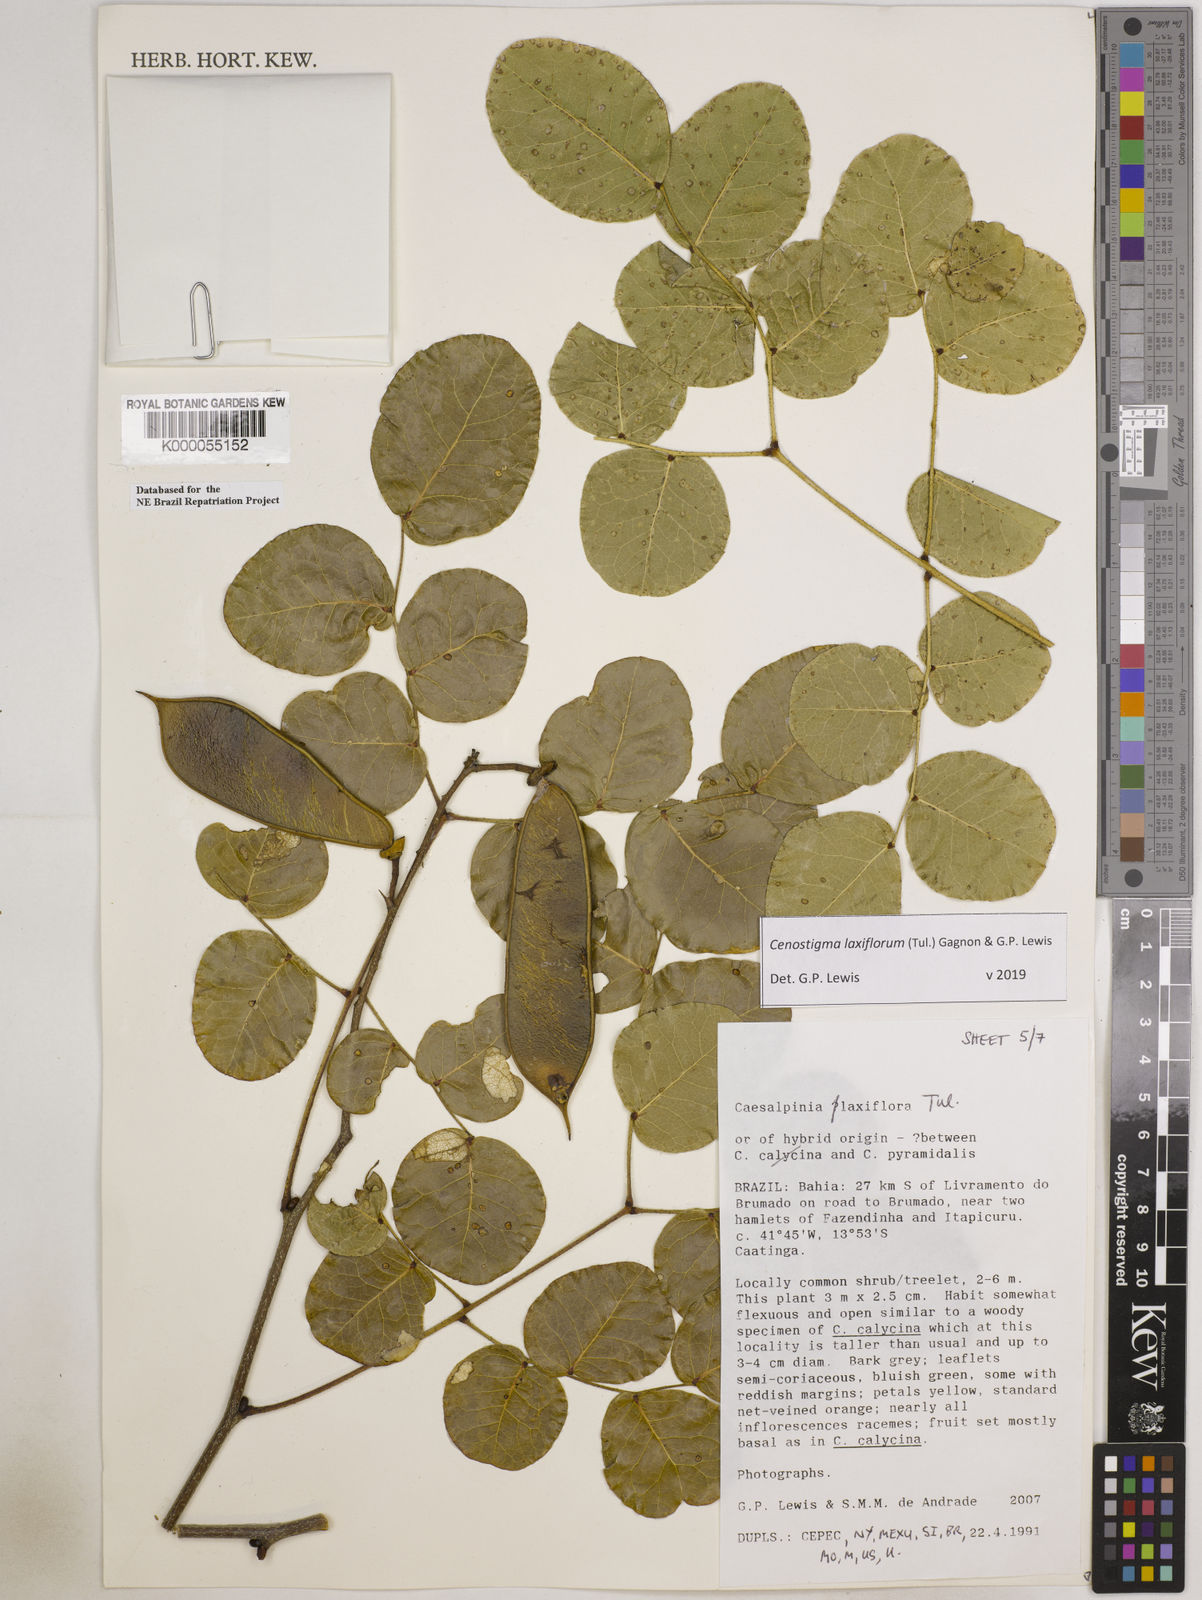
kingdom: Plantae
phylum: Tracheophyta
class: Magnoliopsida
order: Fabales
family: Fabaceae
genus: Cenostigma
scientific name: Cenostigma laxiflorum
